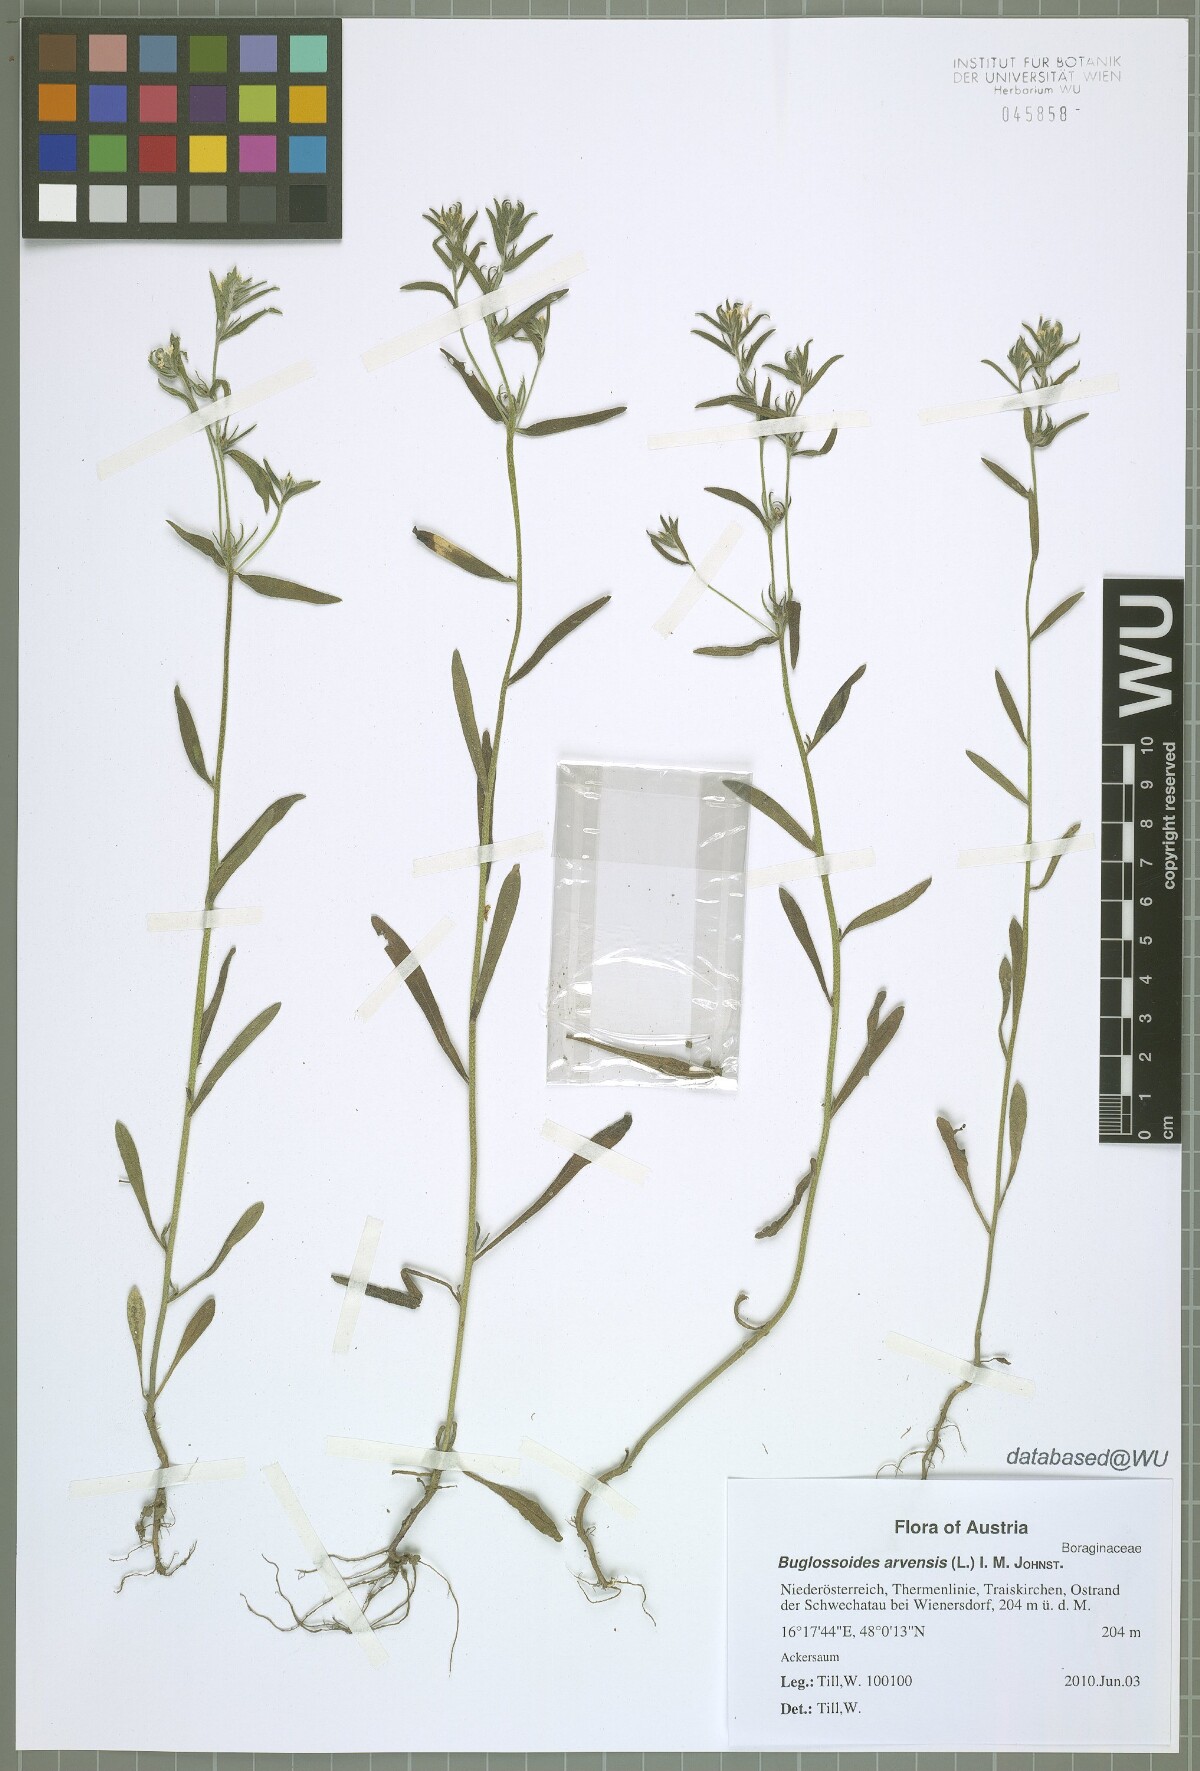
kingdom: Plantae
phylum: Tracheophyta
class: Magnoliopsida
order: Boraginales
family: Boraginaceae
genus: Buglossoides
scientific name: Buglossoides arvensis
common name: Corn gromwell
